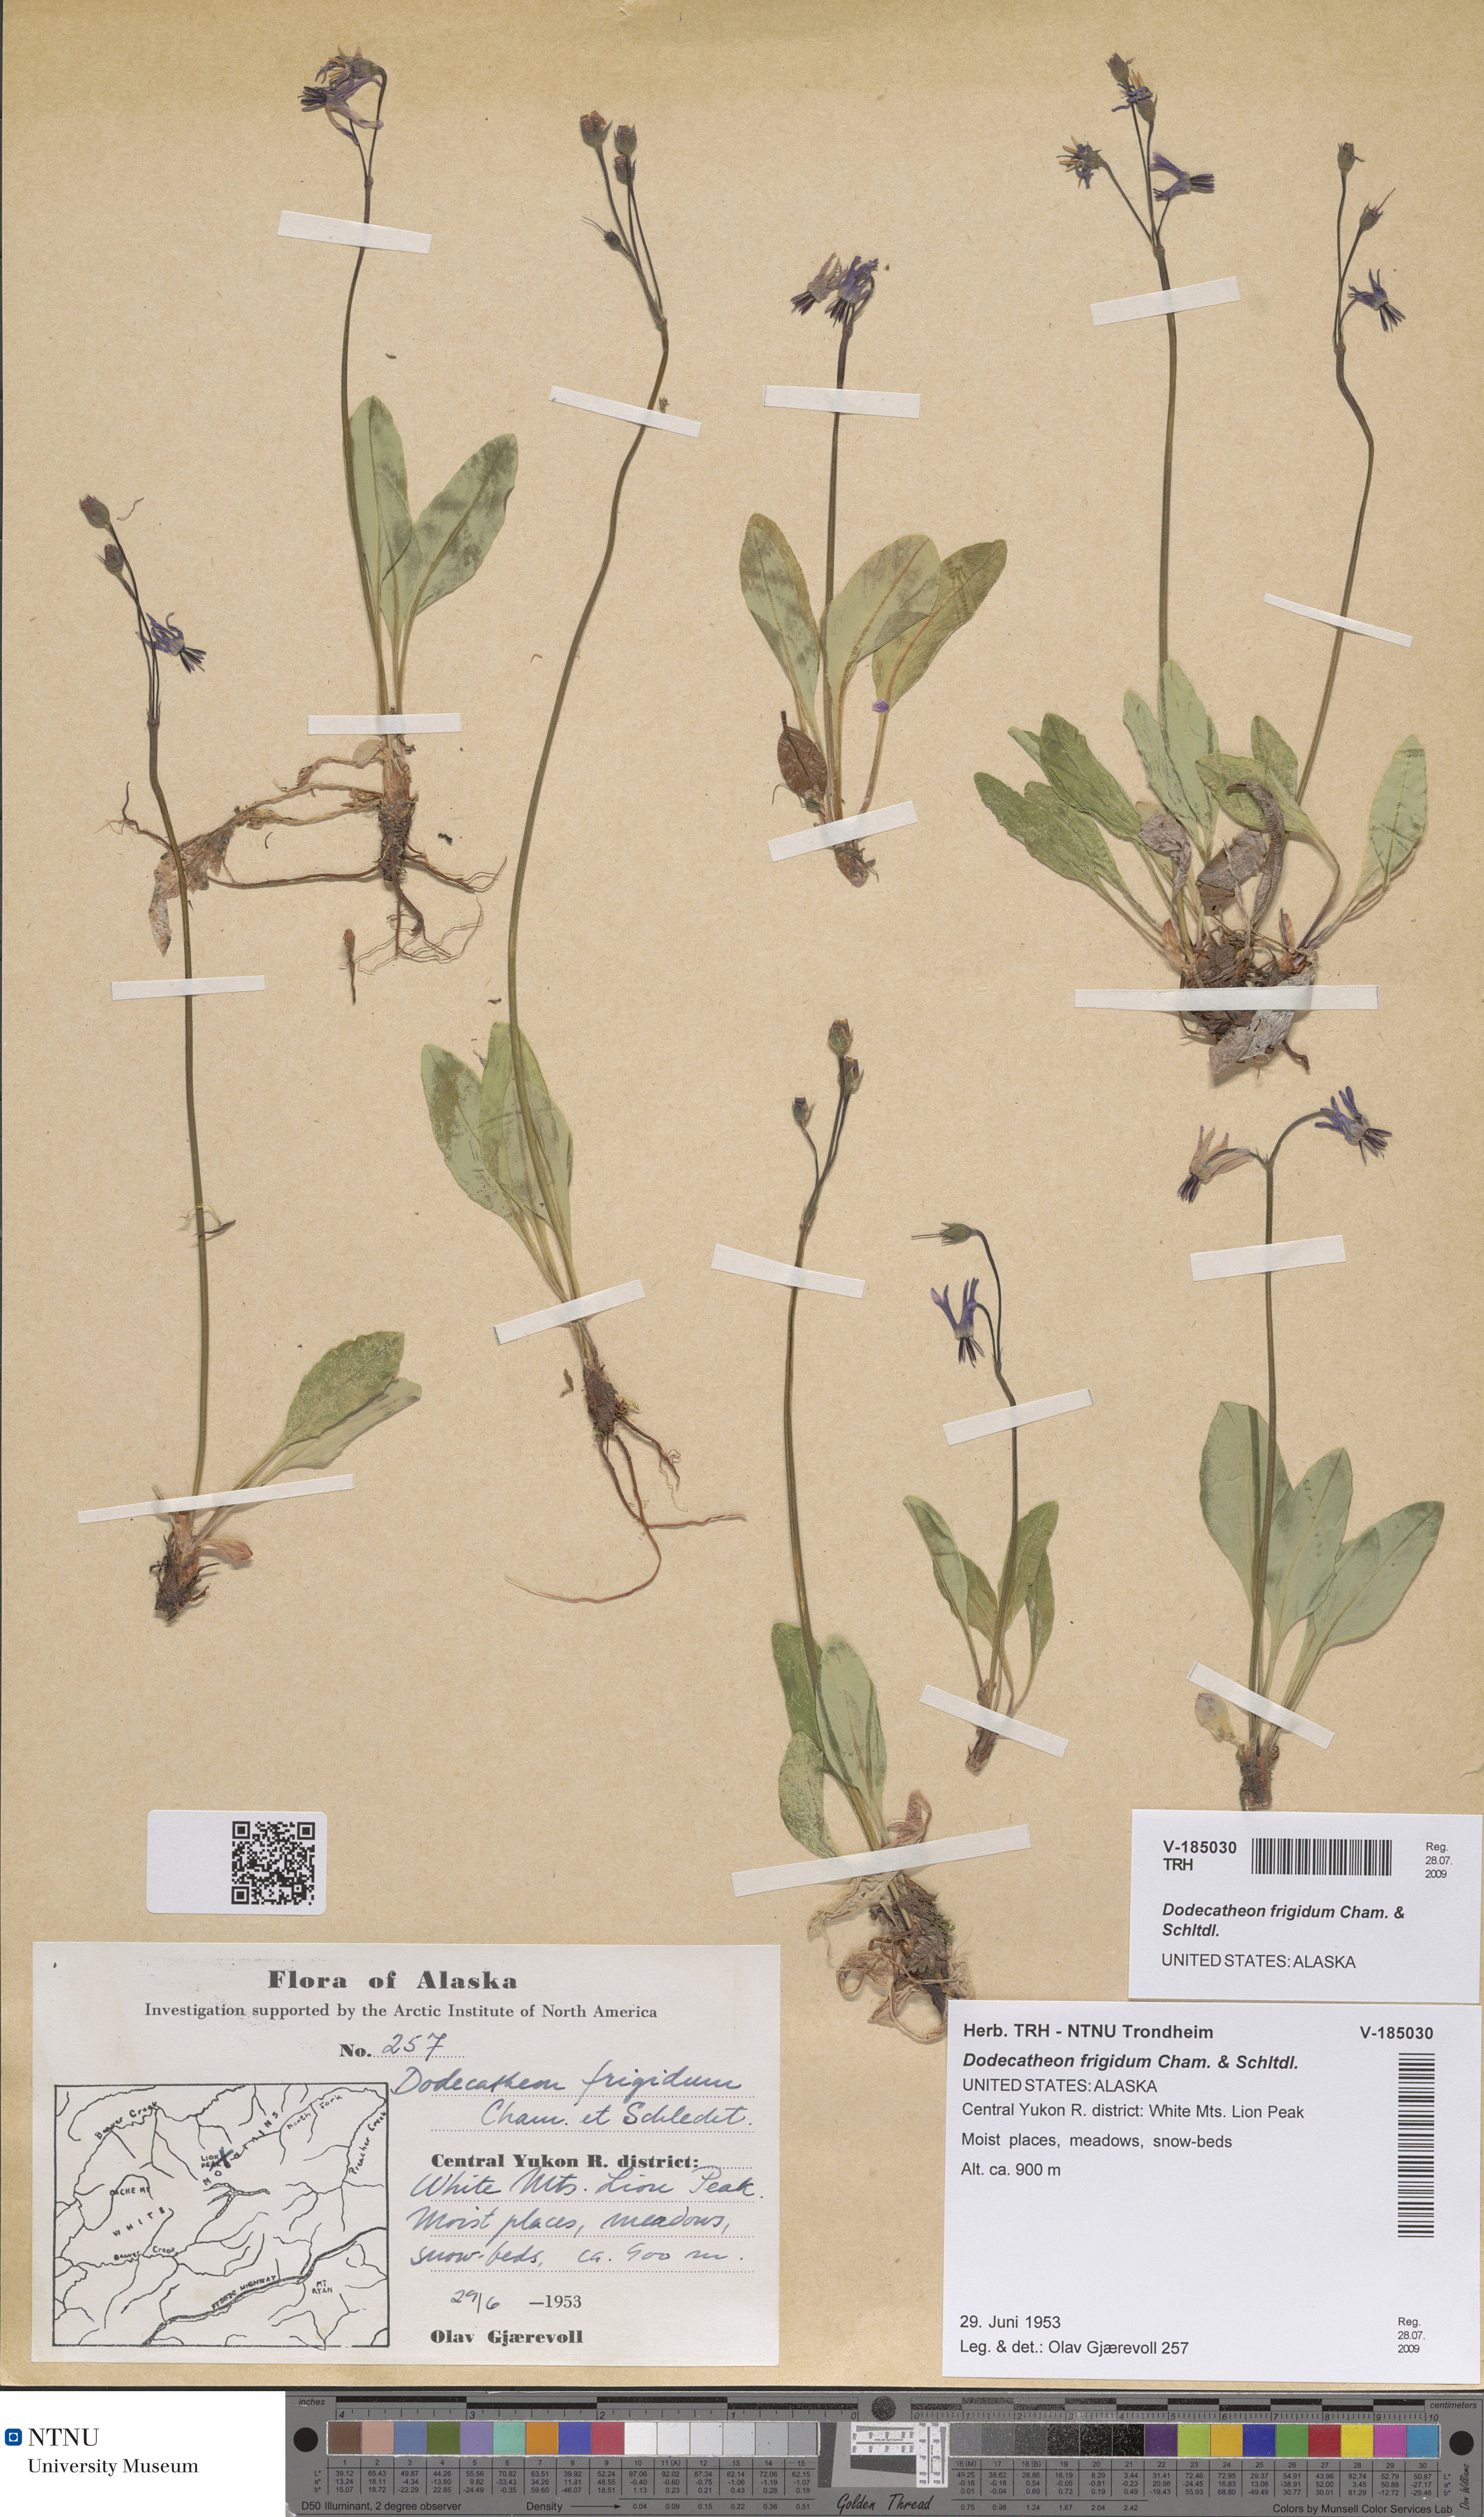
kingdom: Plantae
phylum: Tracheophyta
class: Magnoliopsida
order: Ericales
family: Primulaceae
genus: Dodecatheon
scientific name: Dodecatheon frigidum
